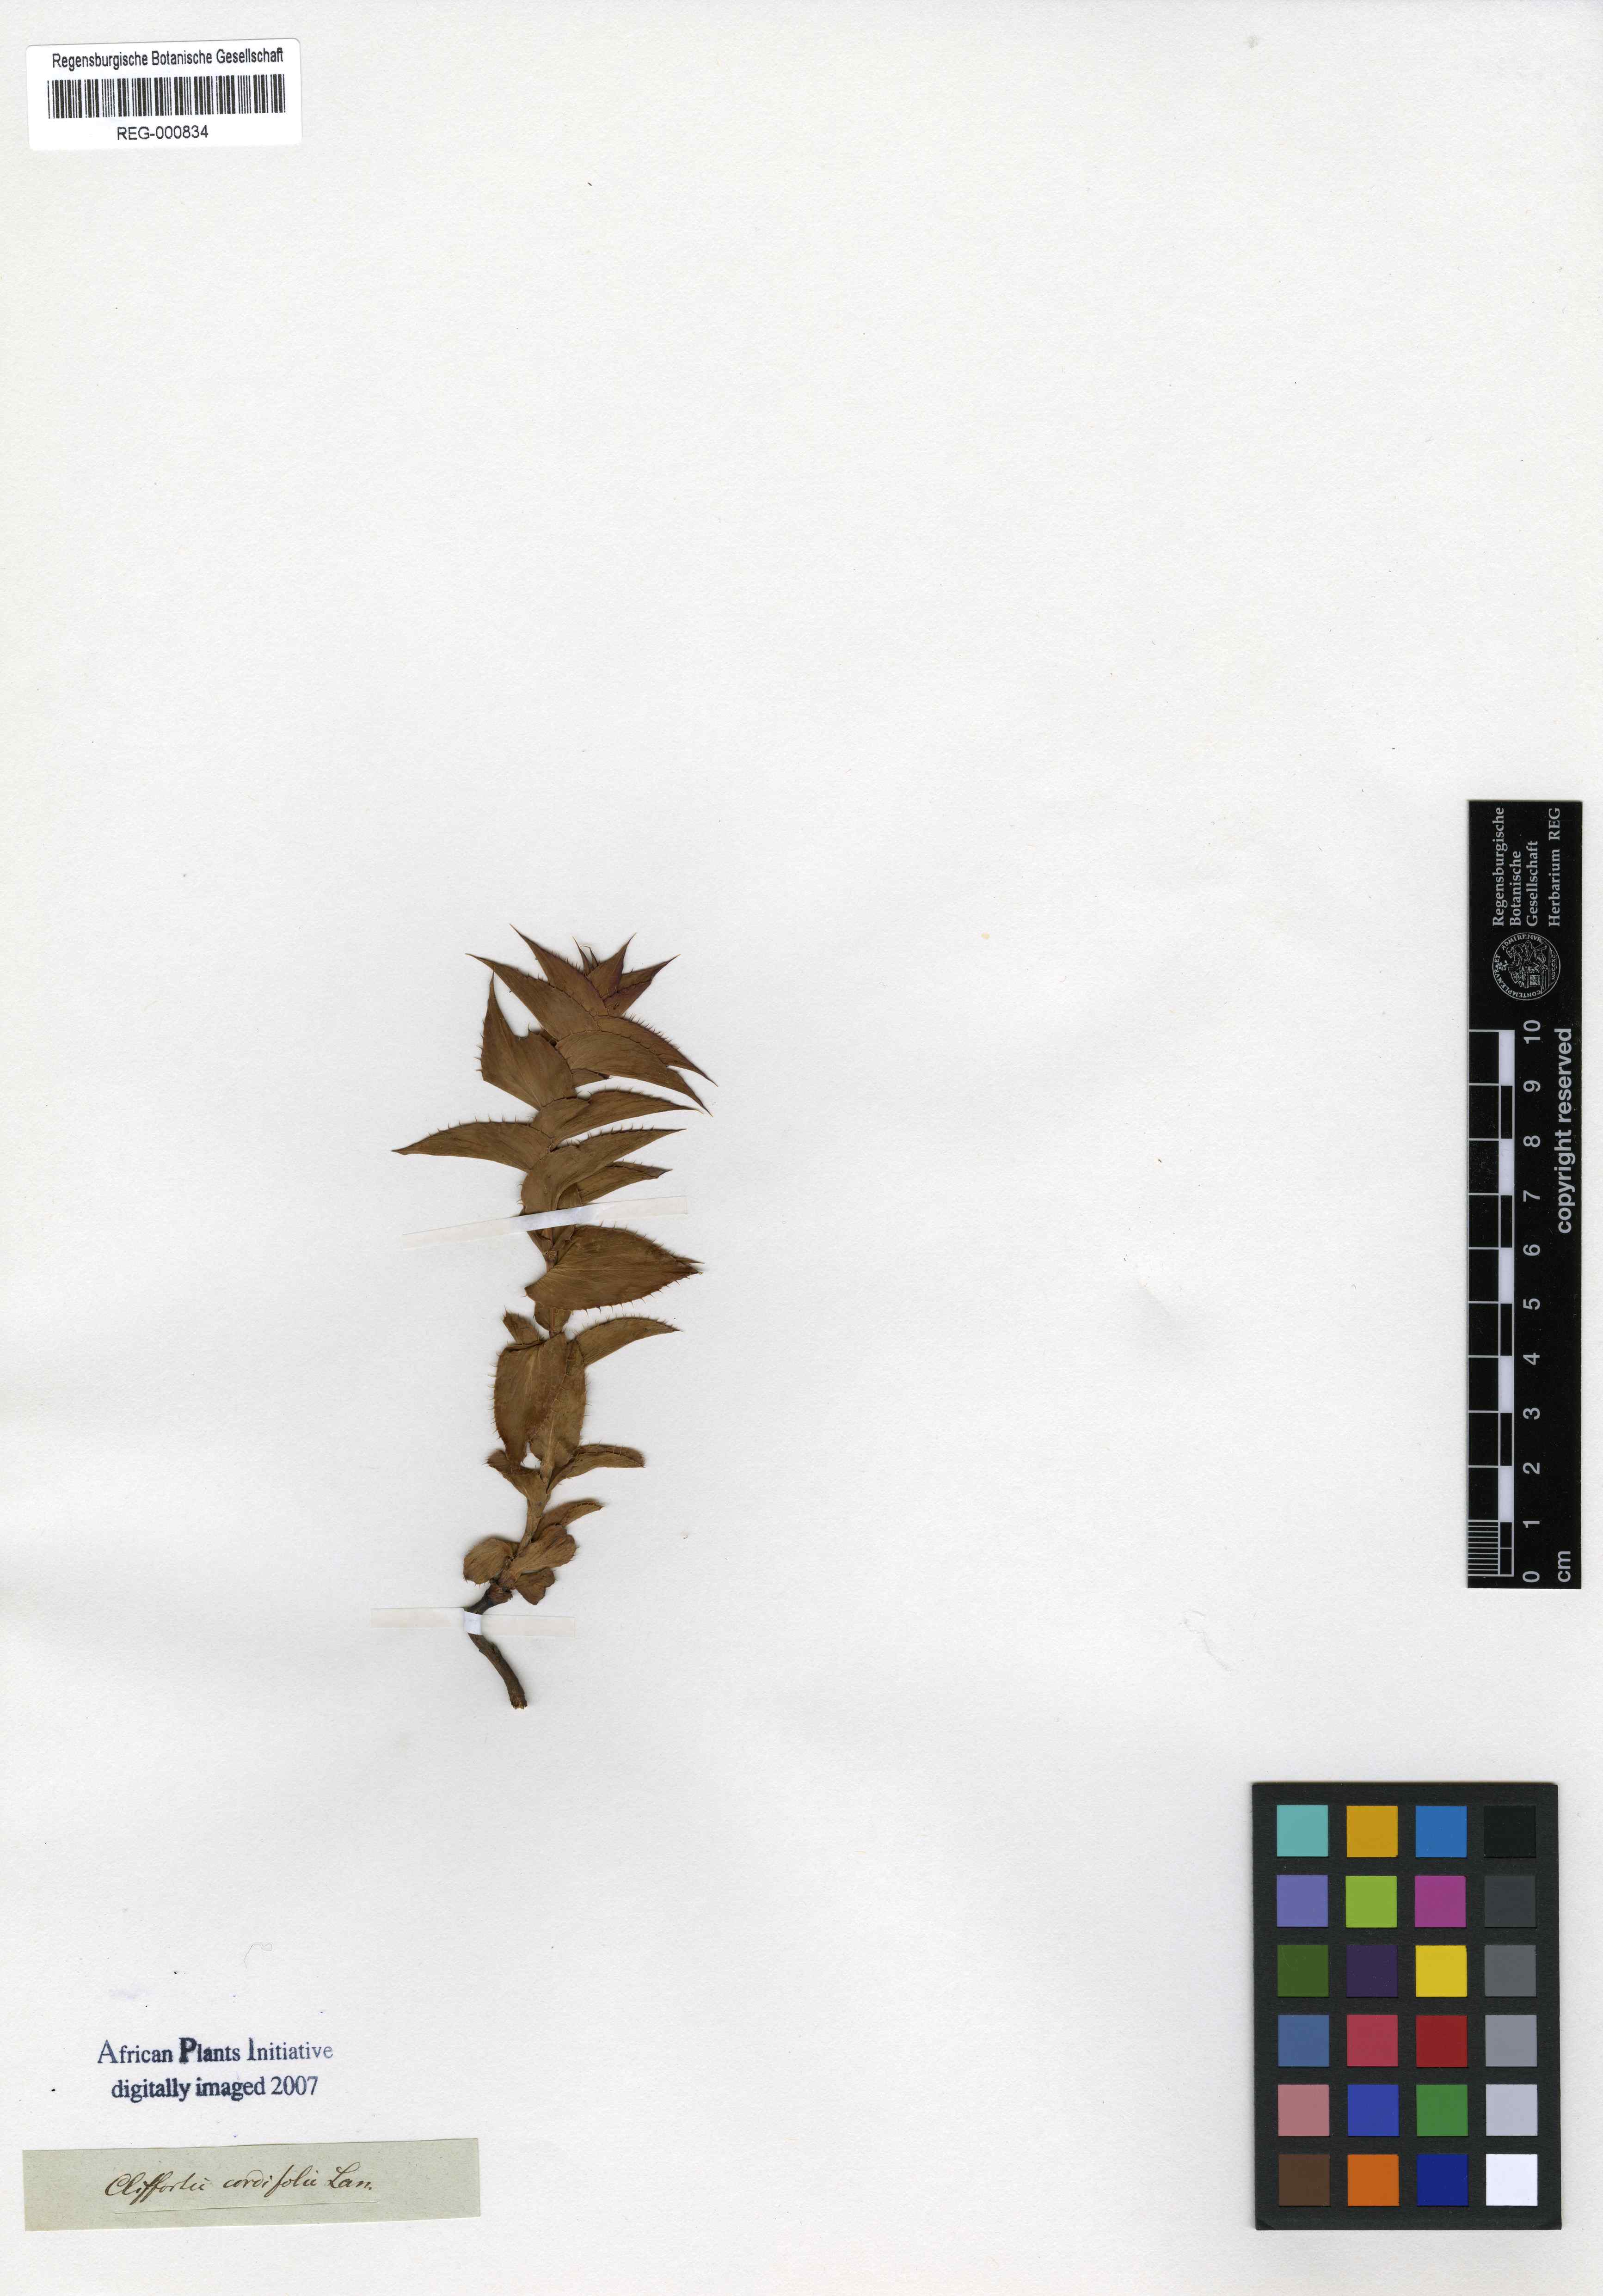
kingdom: Plantae
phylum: Tracheophyta
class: Magnoliopsida
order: Rosales
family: Rosaceae
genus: Cliffortia
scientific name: Cliffortia virgata
